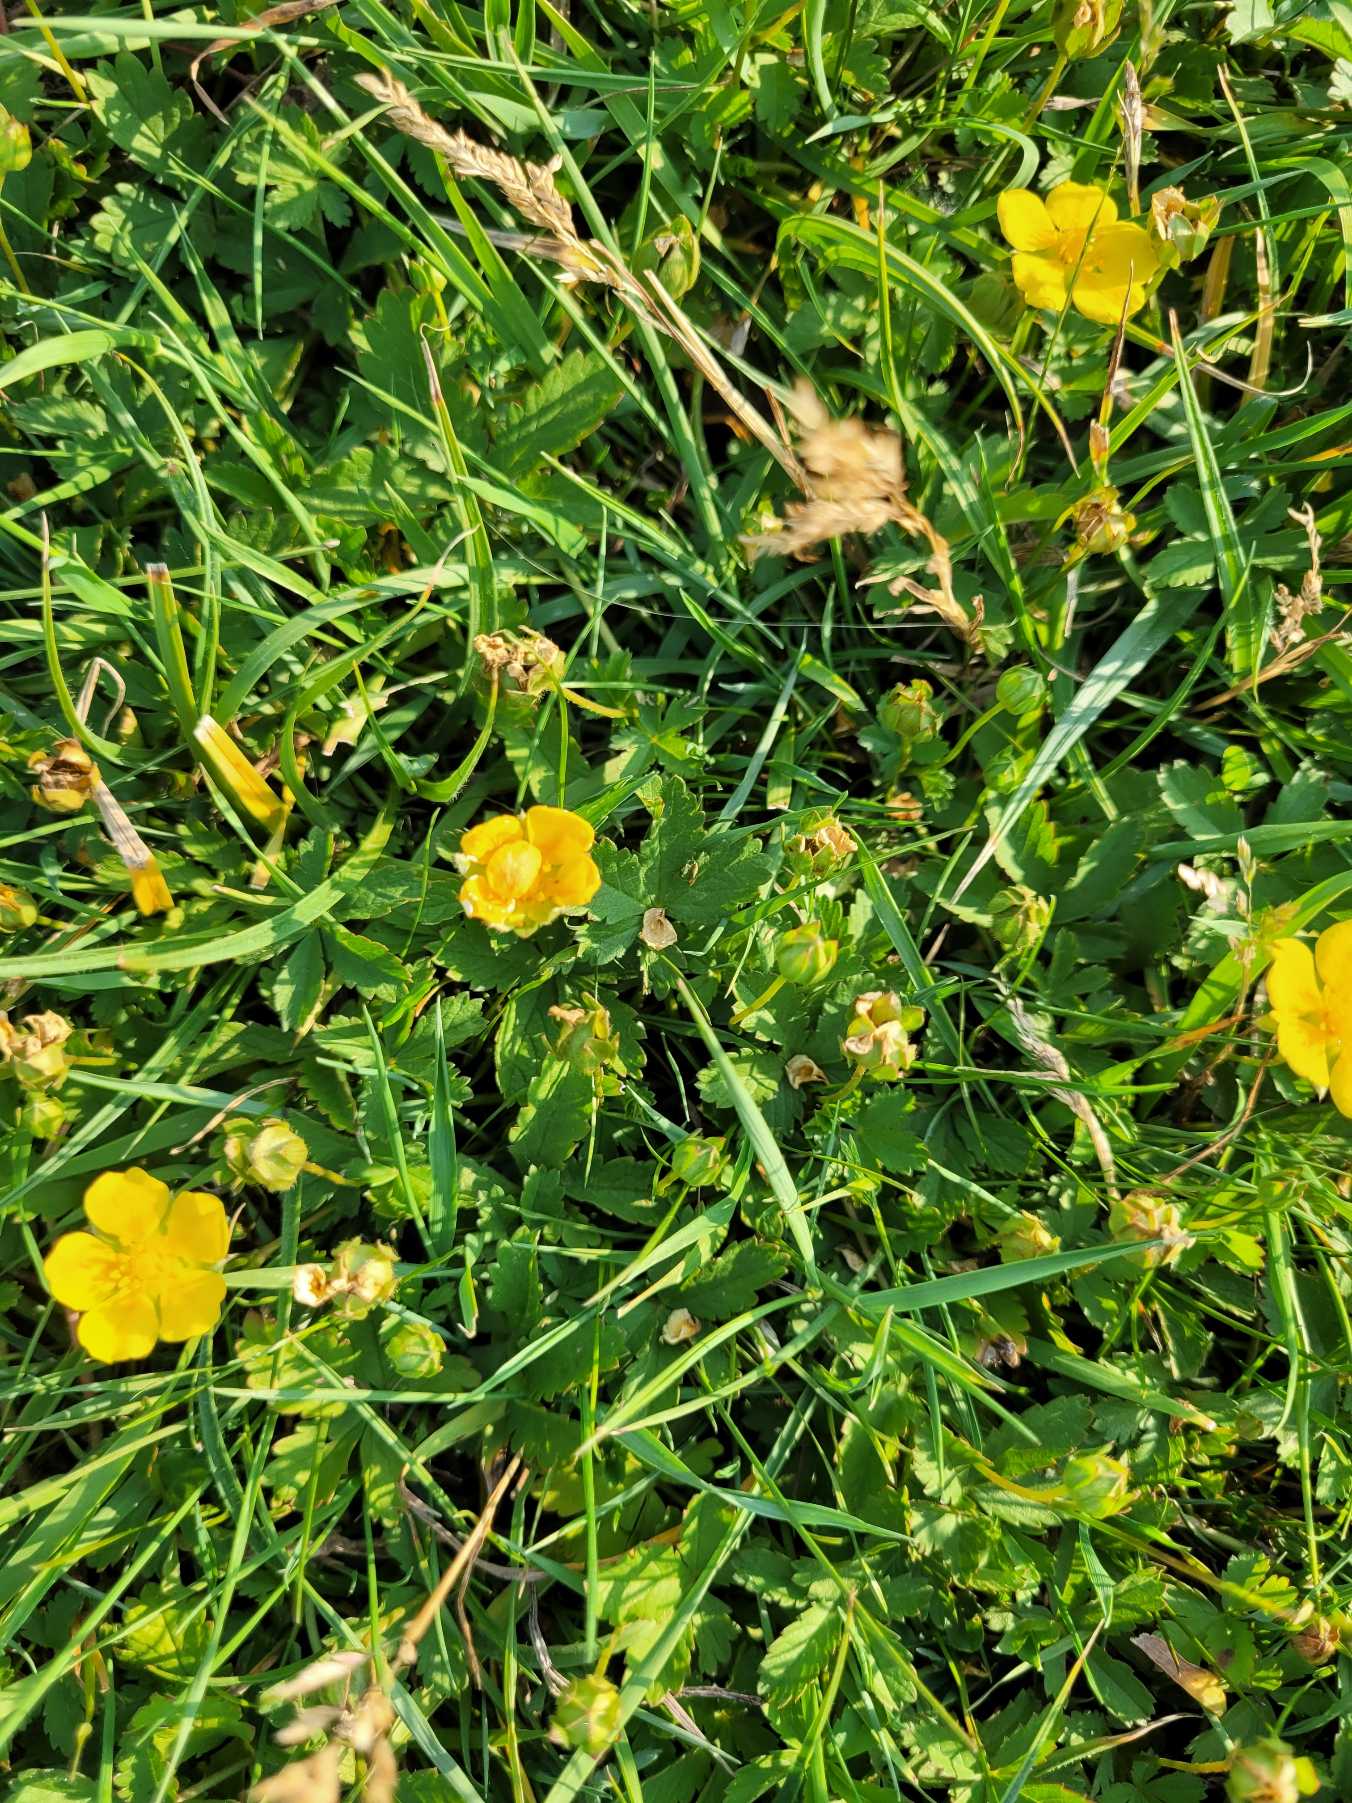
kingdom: Plantae
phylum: Tracheophyta
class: Magnoliopsida
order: Rosales
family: Rosaceae
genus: Potentilla
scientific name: Potentilla reptans
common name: Krybende potentil
